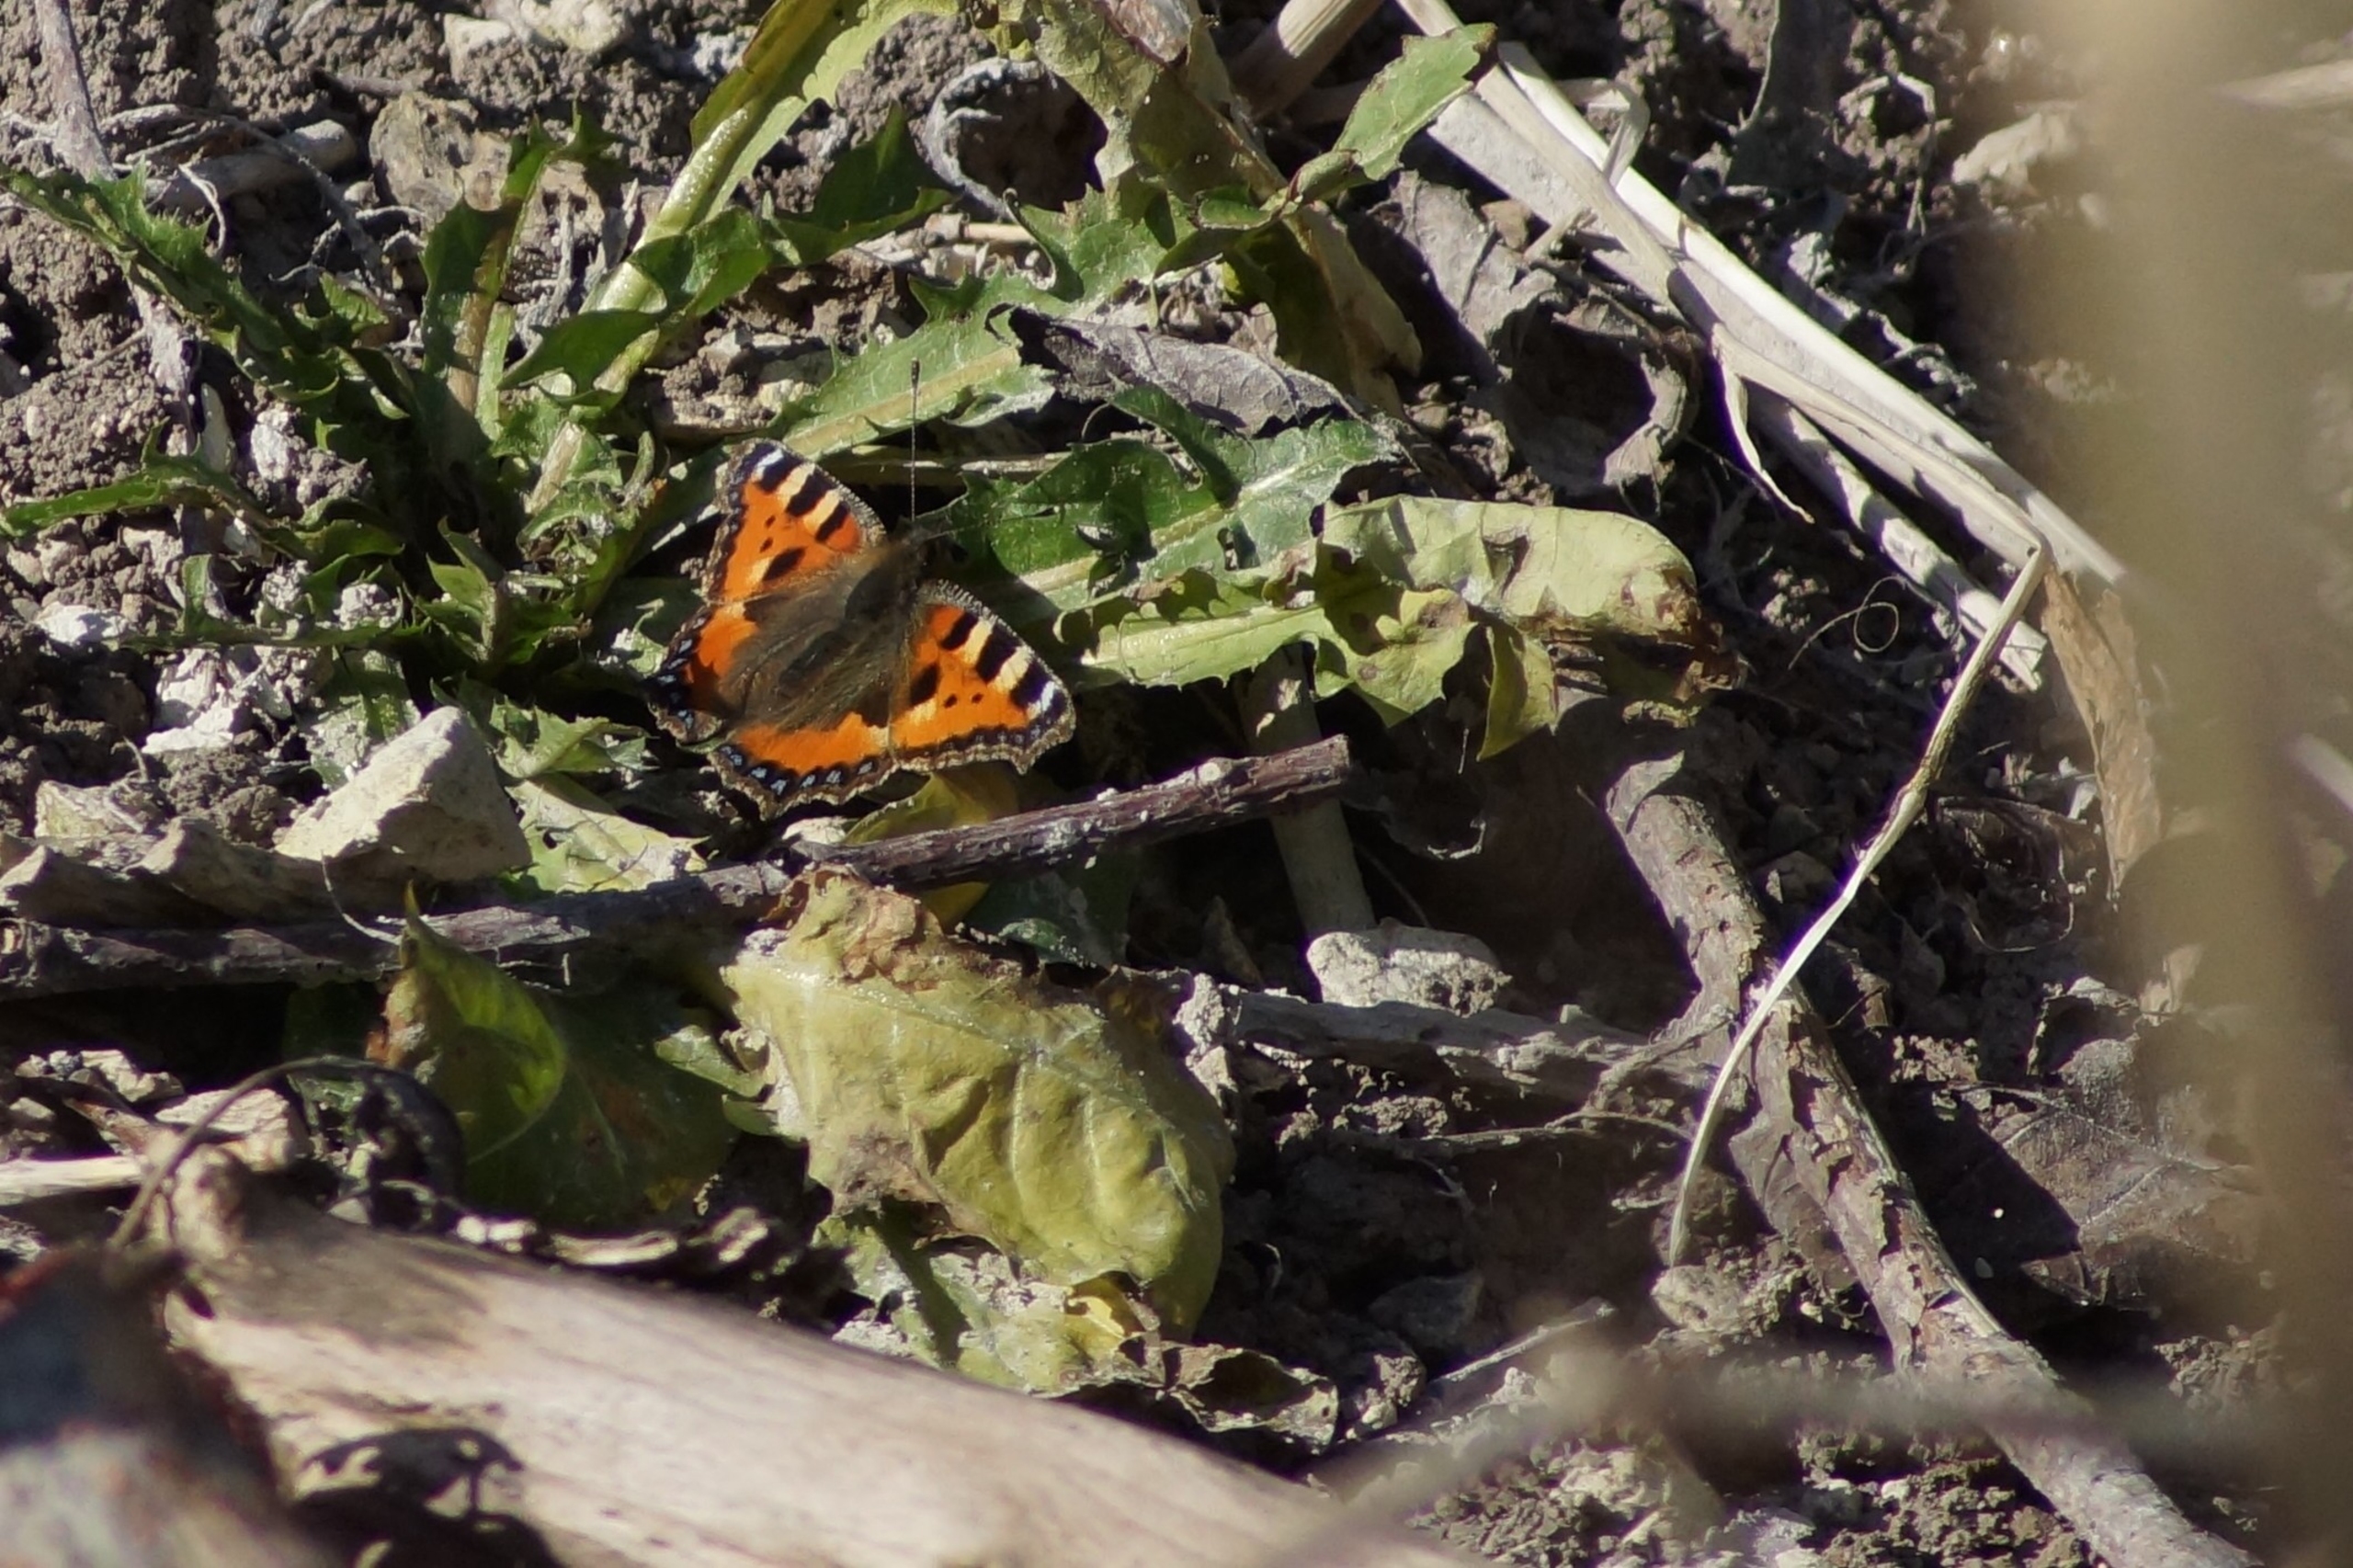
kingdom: Animalia
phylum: Arthropoda
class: Insecta
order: Lepidoptera
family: Nymphalidae
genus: Aglais
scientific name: Aglais urticae
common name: Nældens takvinge
